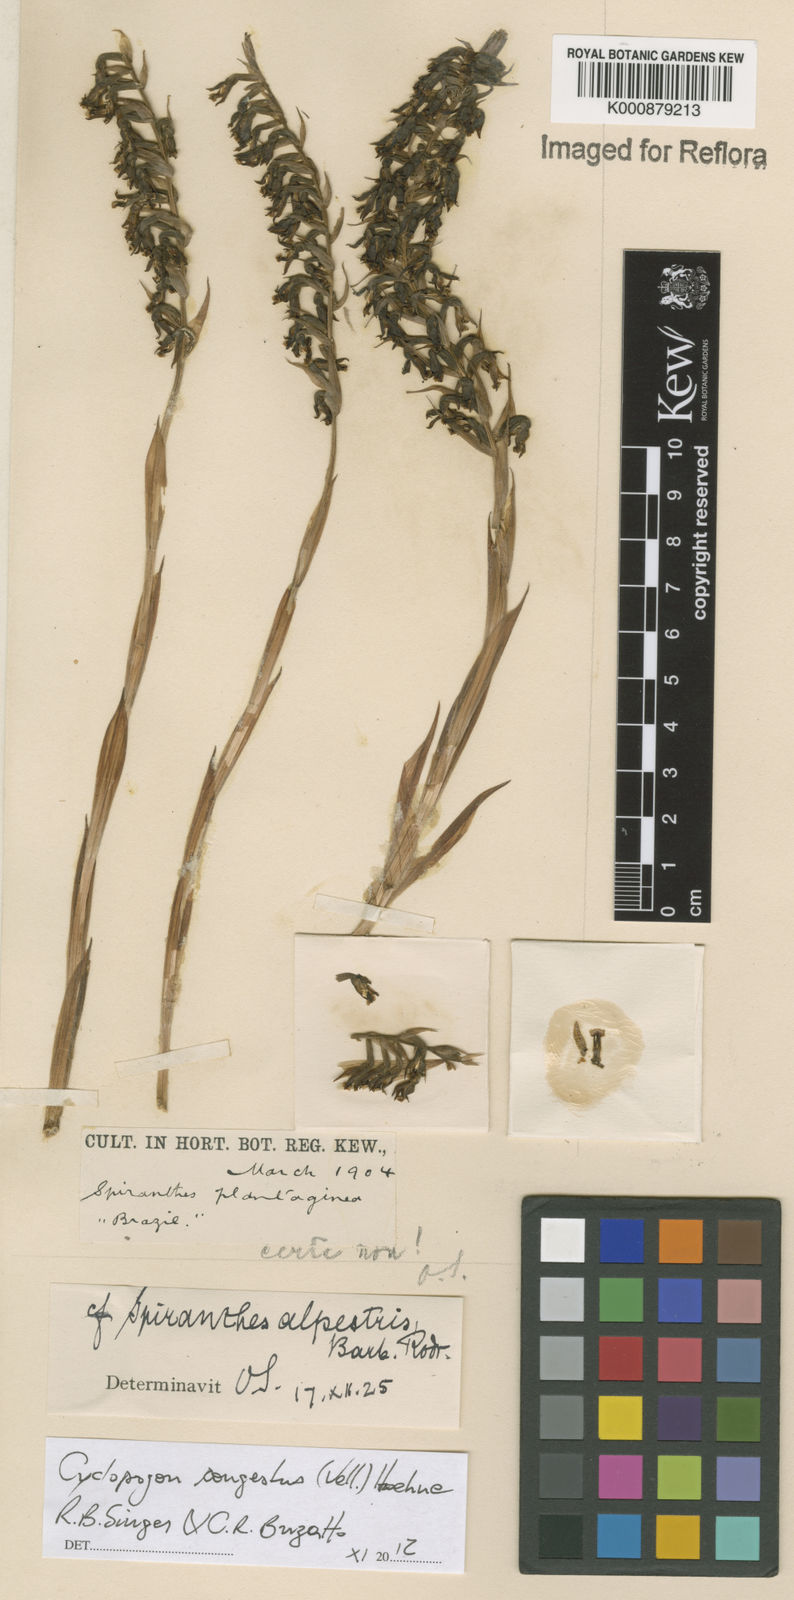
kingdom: Plantae
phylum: Tracheophyta
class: Liliopsida
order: Asparagales
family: Orchidaceae
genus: Cyclopogon
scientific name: Cyclopogon congestus
